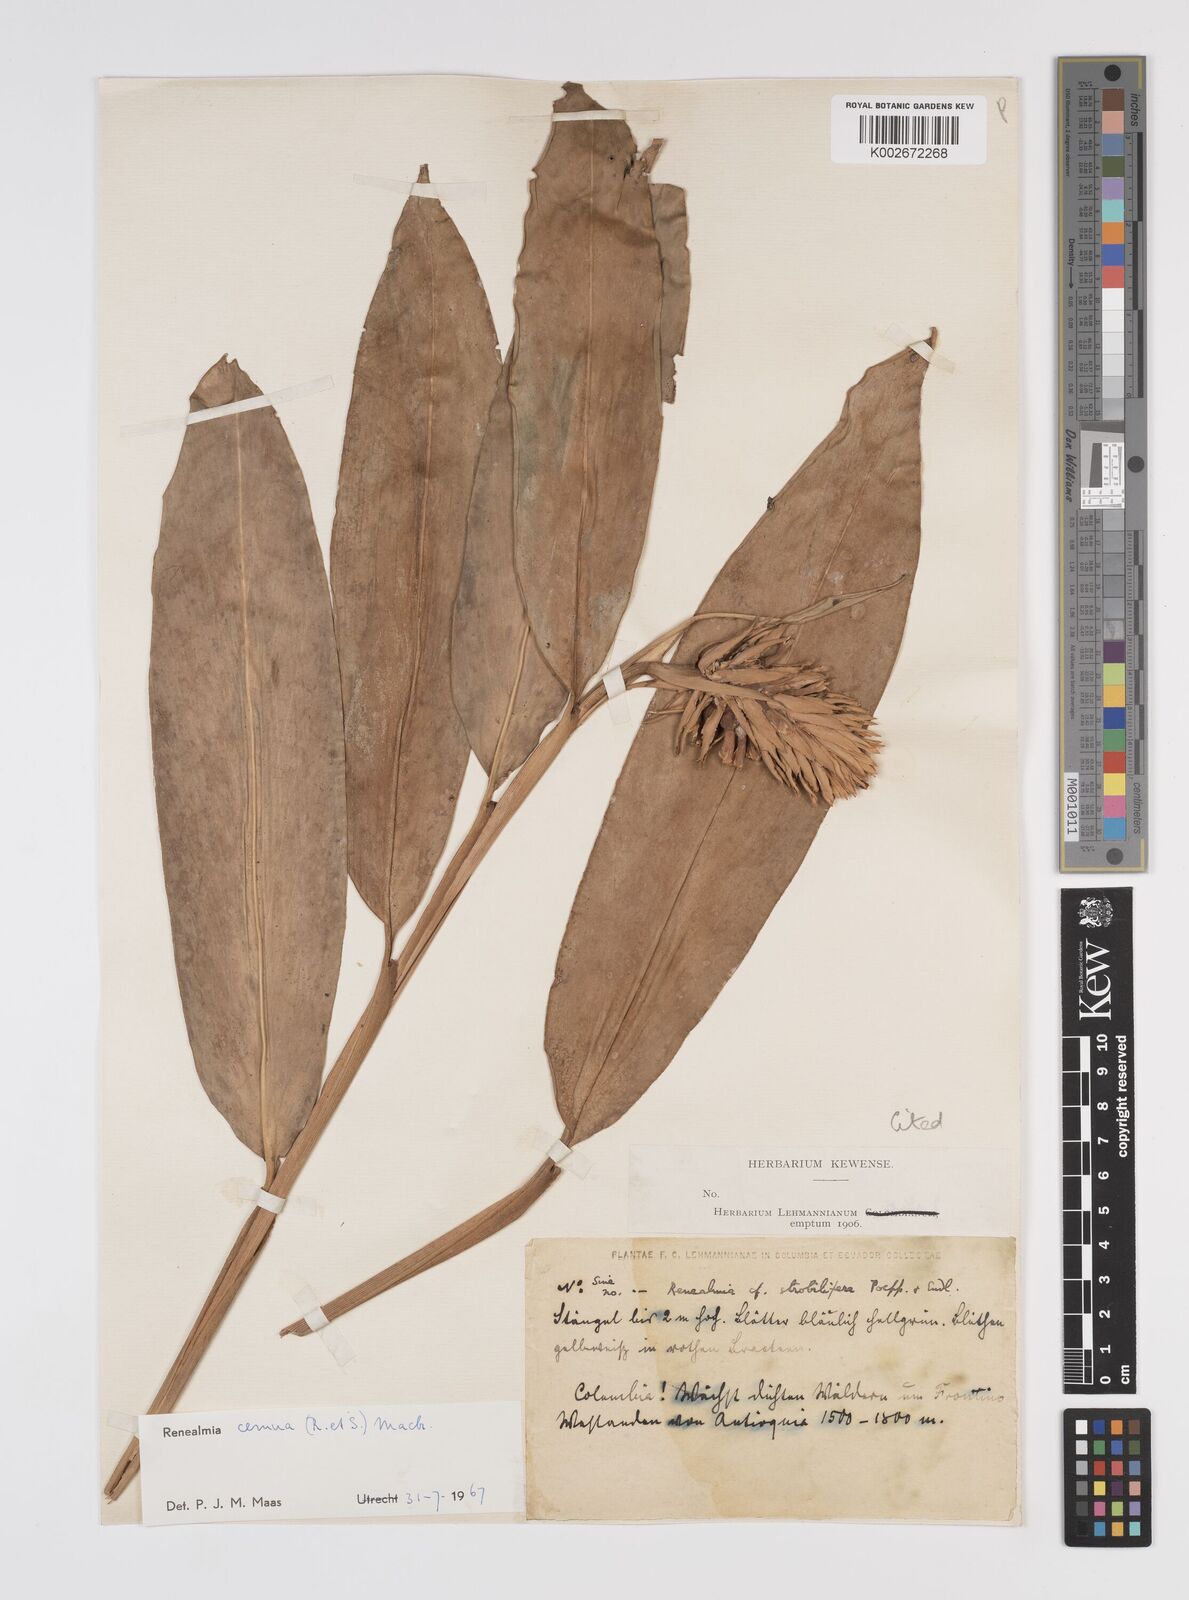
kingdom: Plantae
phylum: Tracheophyta
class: Liliopsida
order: Zingiberales
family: Zingiberaceae
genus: Renealmia
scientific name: Renealmia cernua
